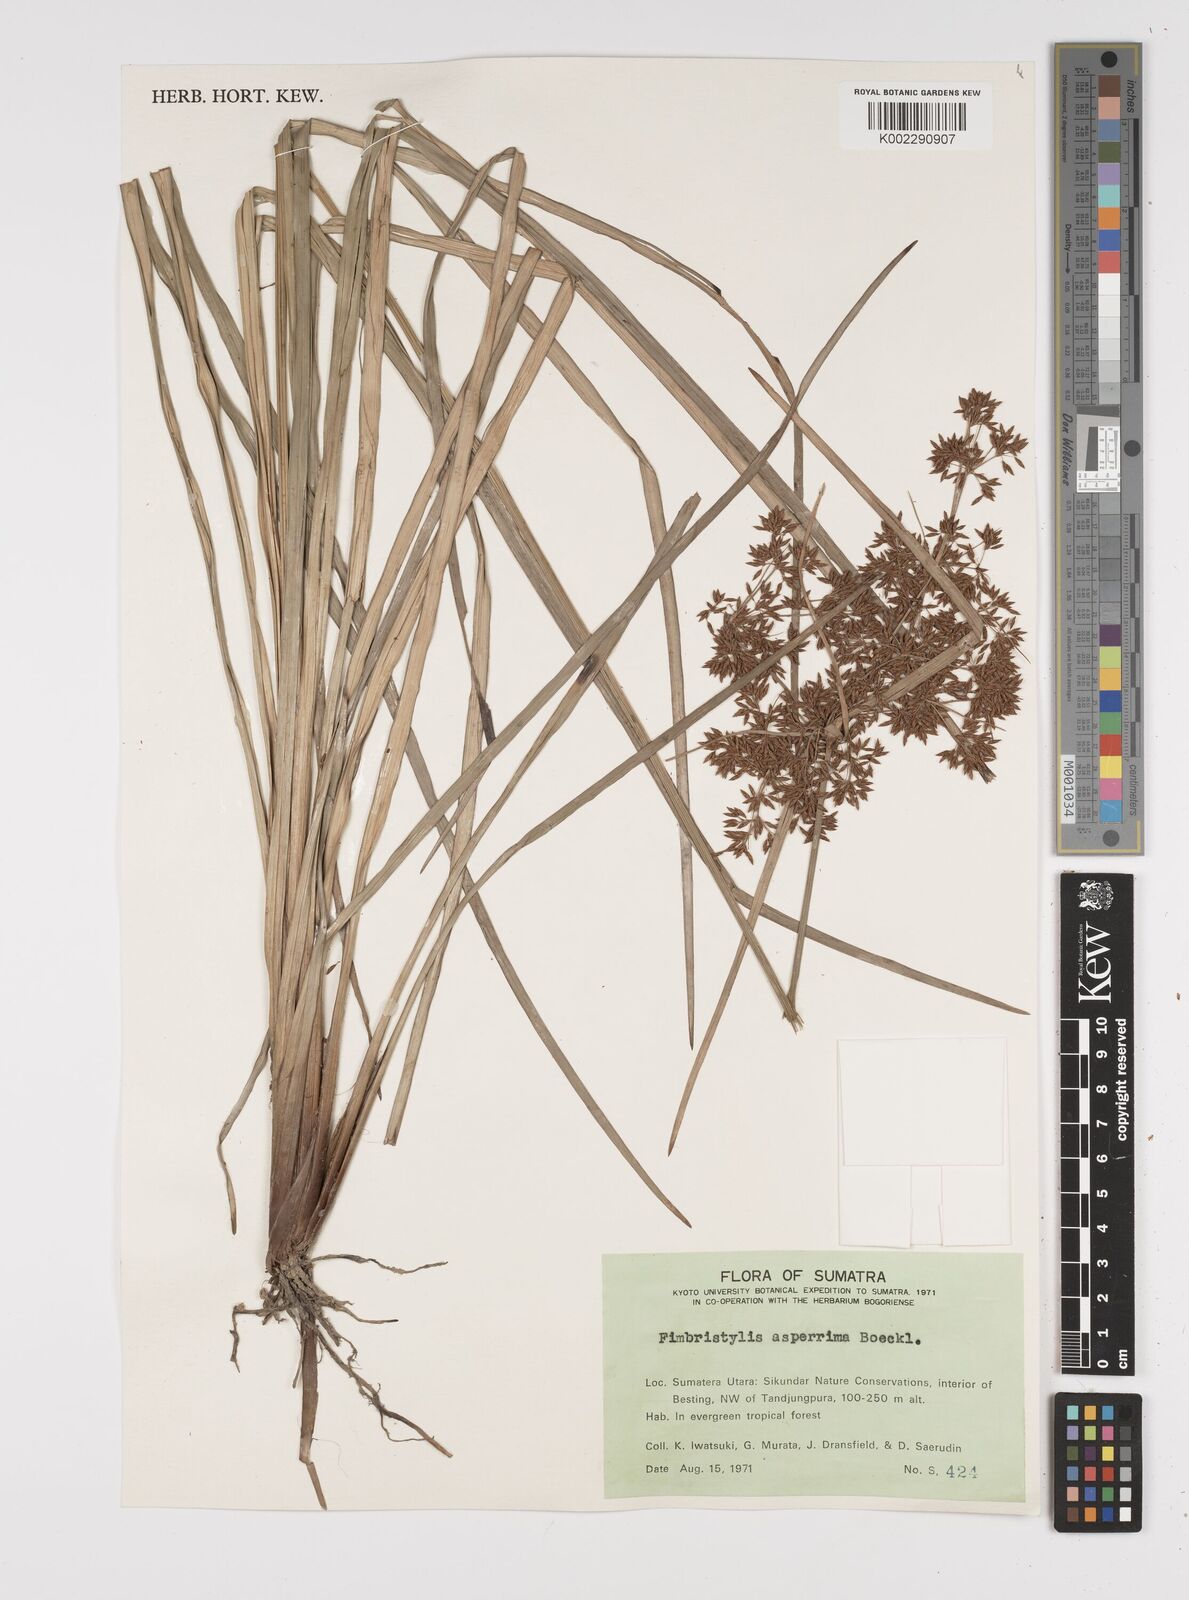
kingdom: Plantae
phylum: Tracheophyta
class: Liliopsida
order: Poales
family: Cyperaceae
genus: Fimbristylis
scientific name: Fimbristylis dura
